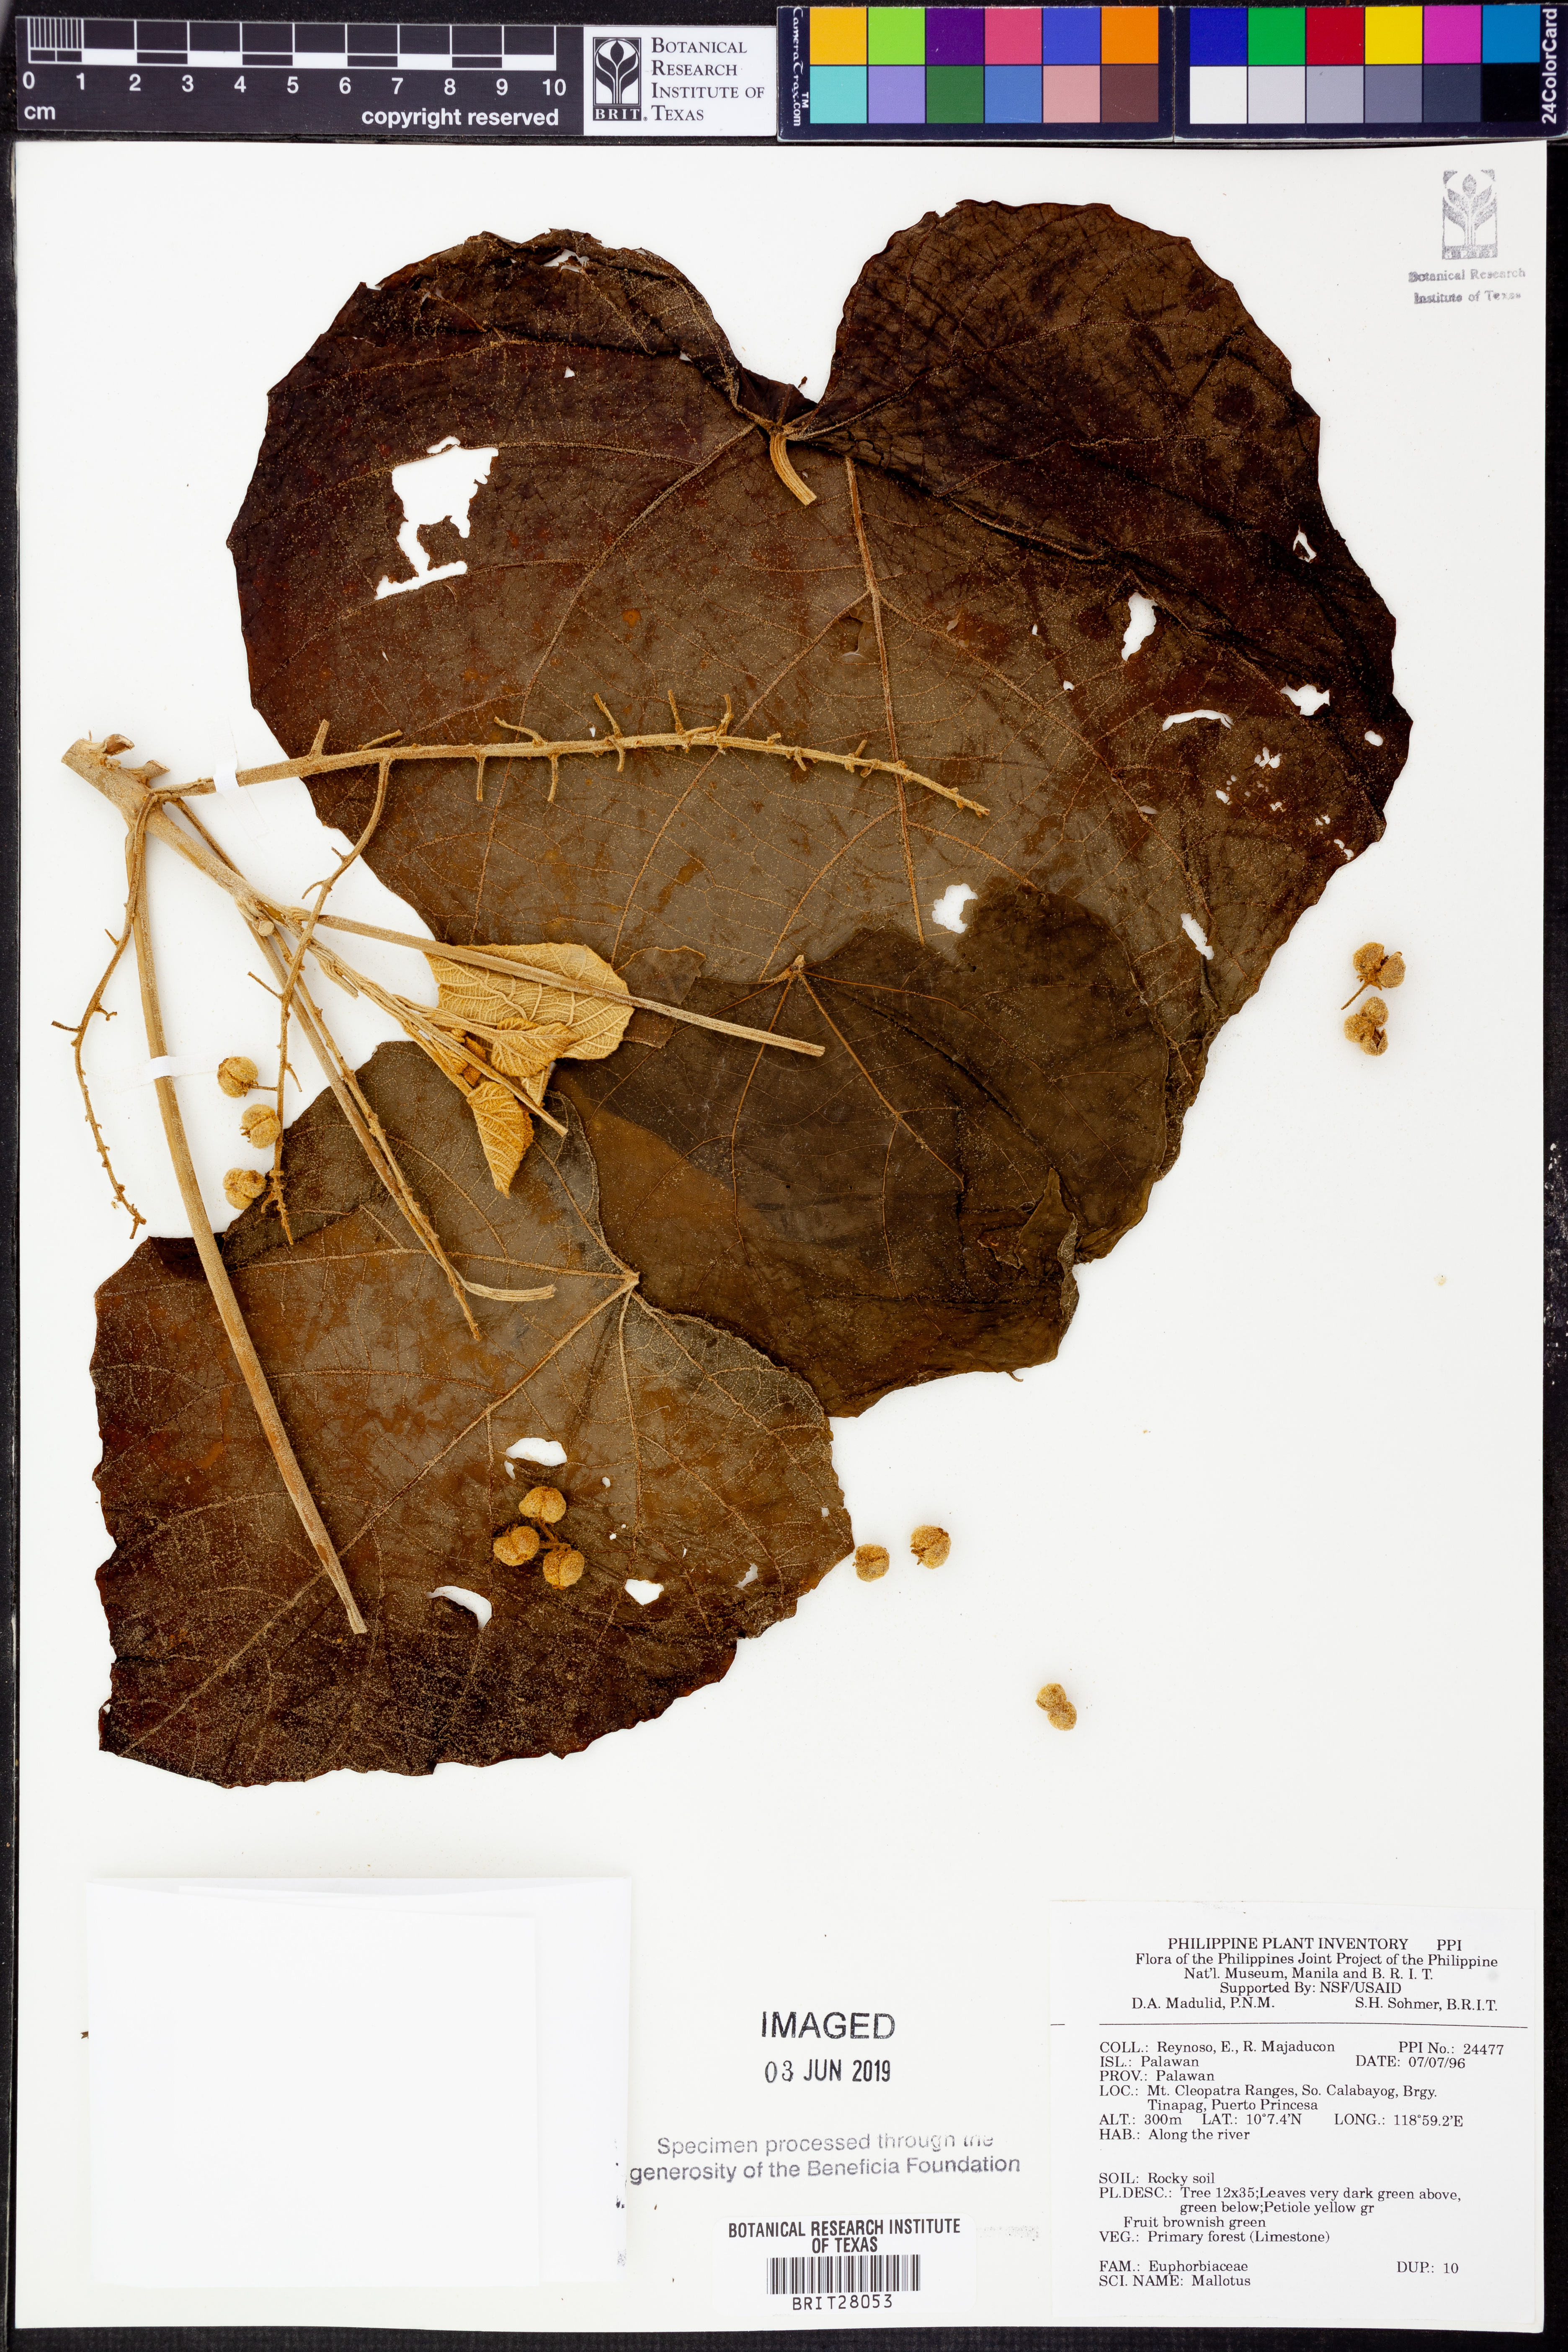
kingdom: Plantae
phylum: Tracheophyta
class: Magnoliopsida
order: Malpighiales
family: Euphorbiaceae
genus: Mallotus
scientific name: Mallotus
